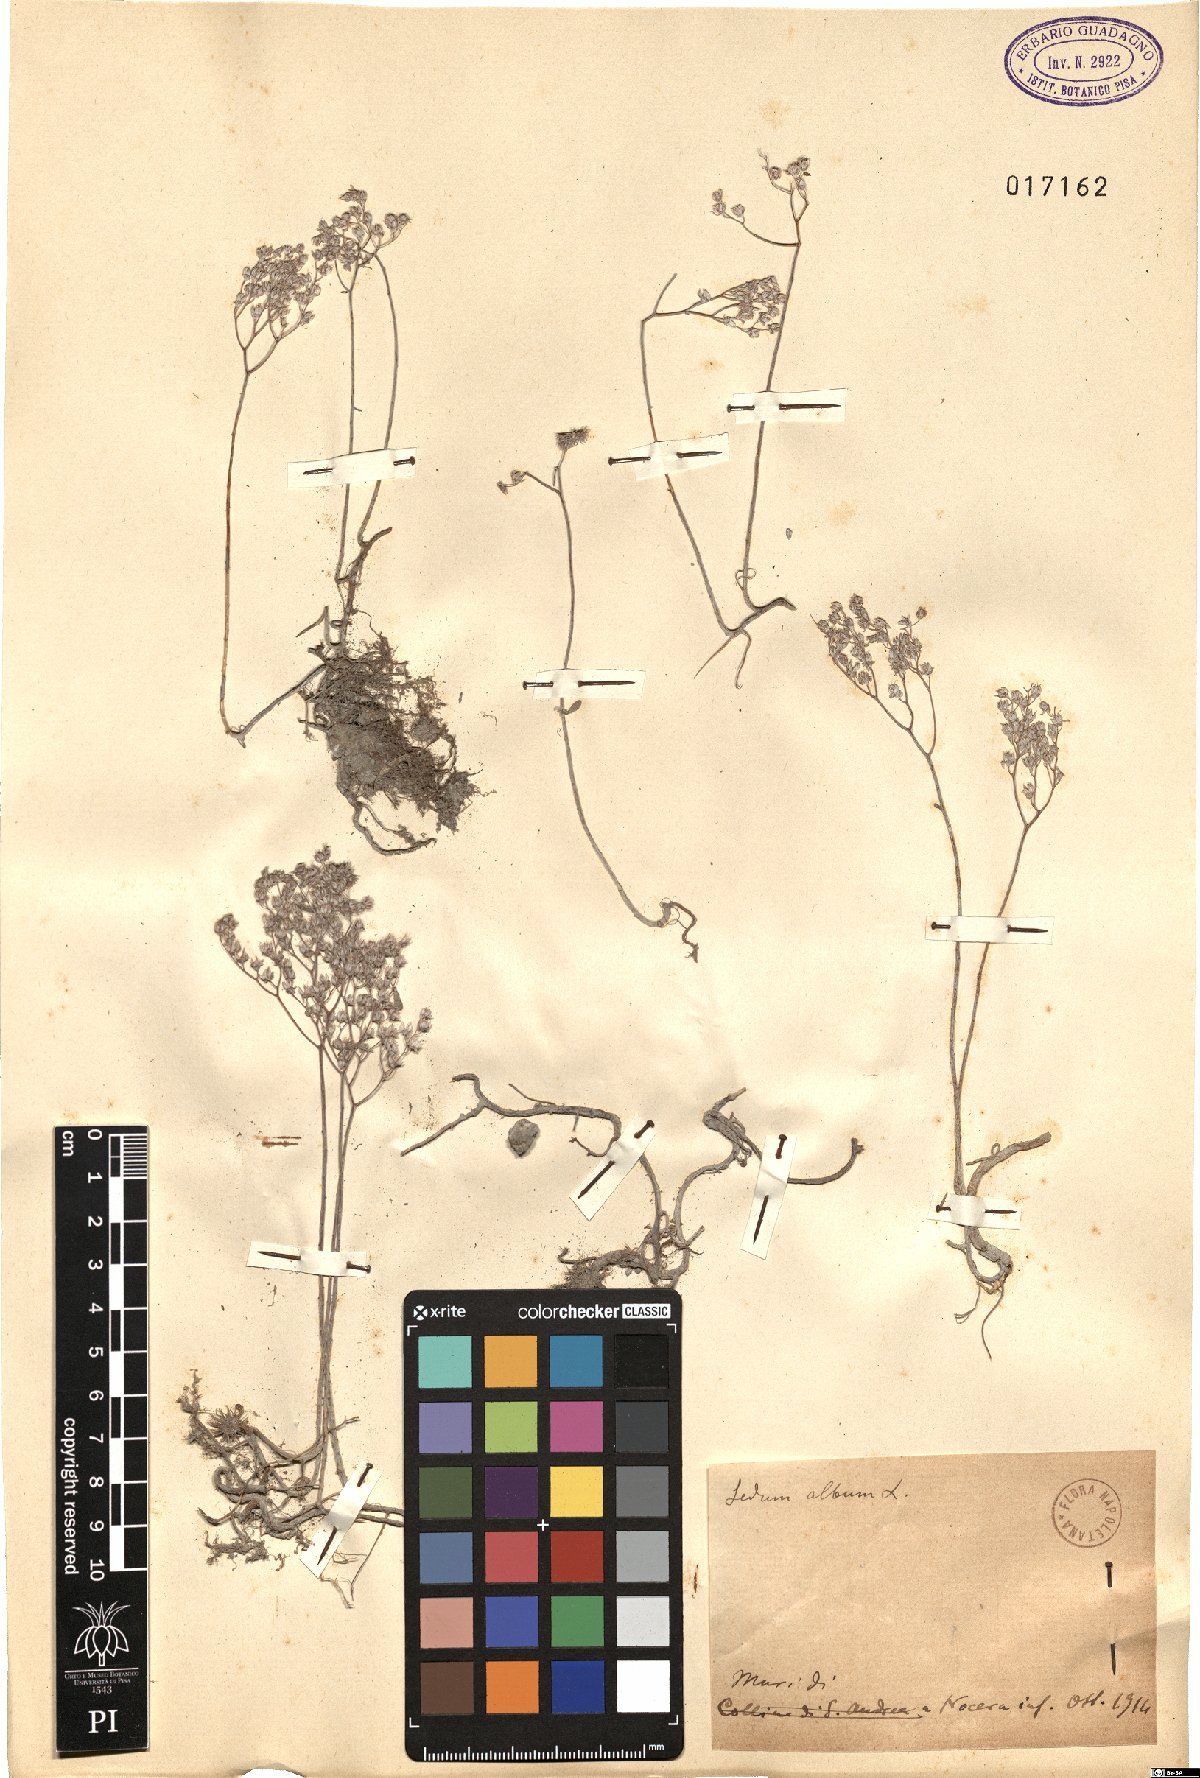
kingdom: Plantae
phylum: Tracheophyta
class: Magnoliopsida
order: Saxifragales
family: Crassulaceae
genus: Sedum
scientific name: Sedum album
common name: White stonecrop
